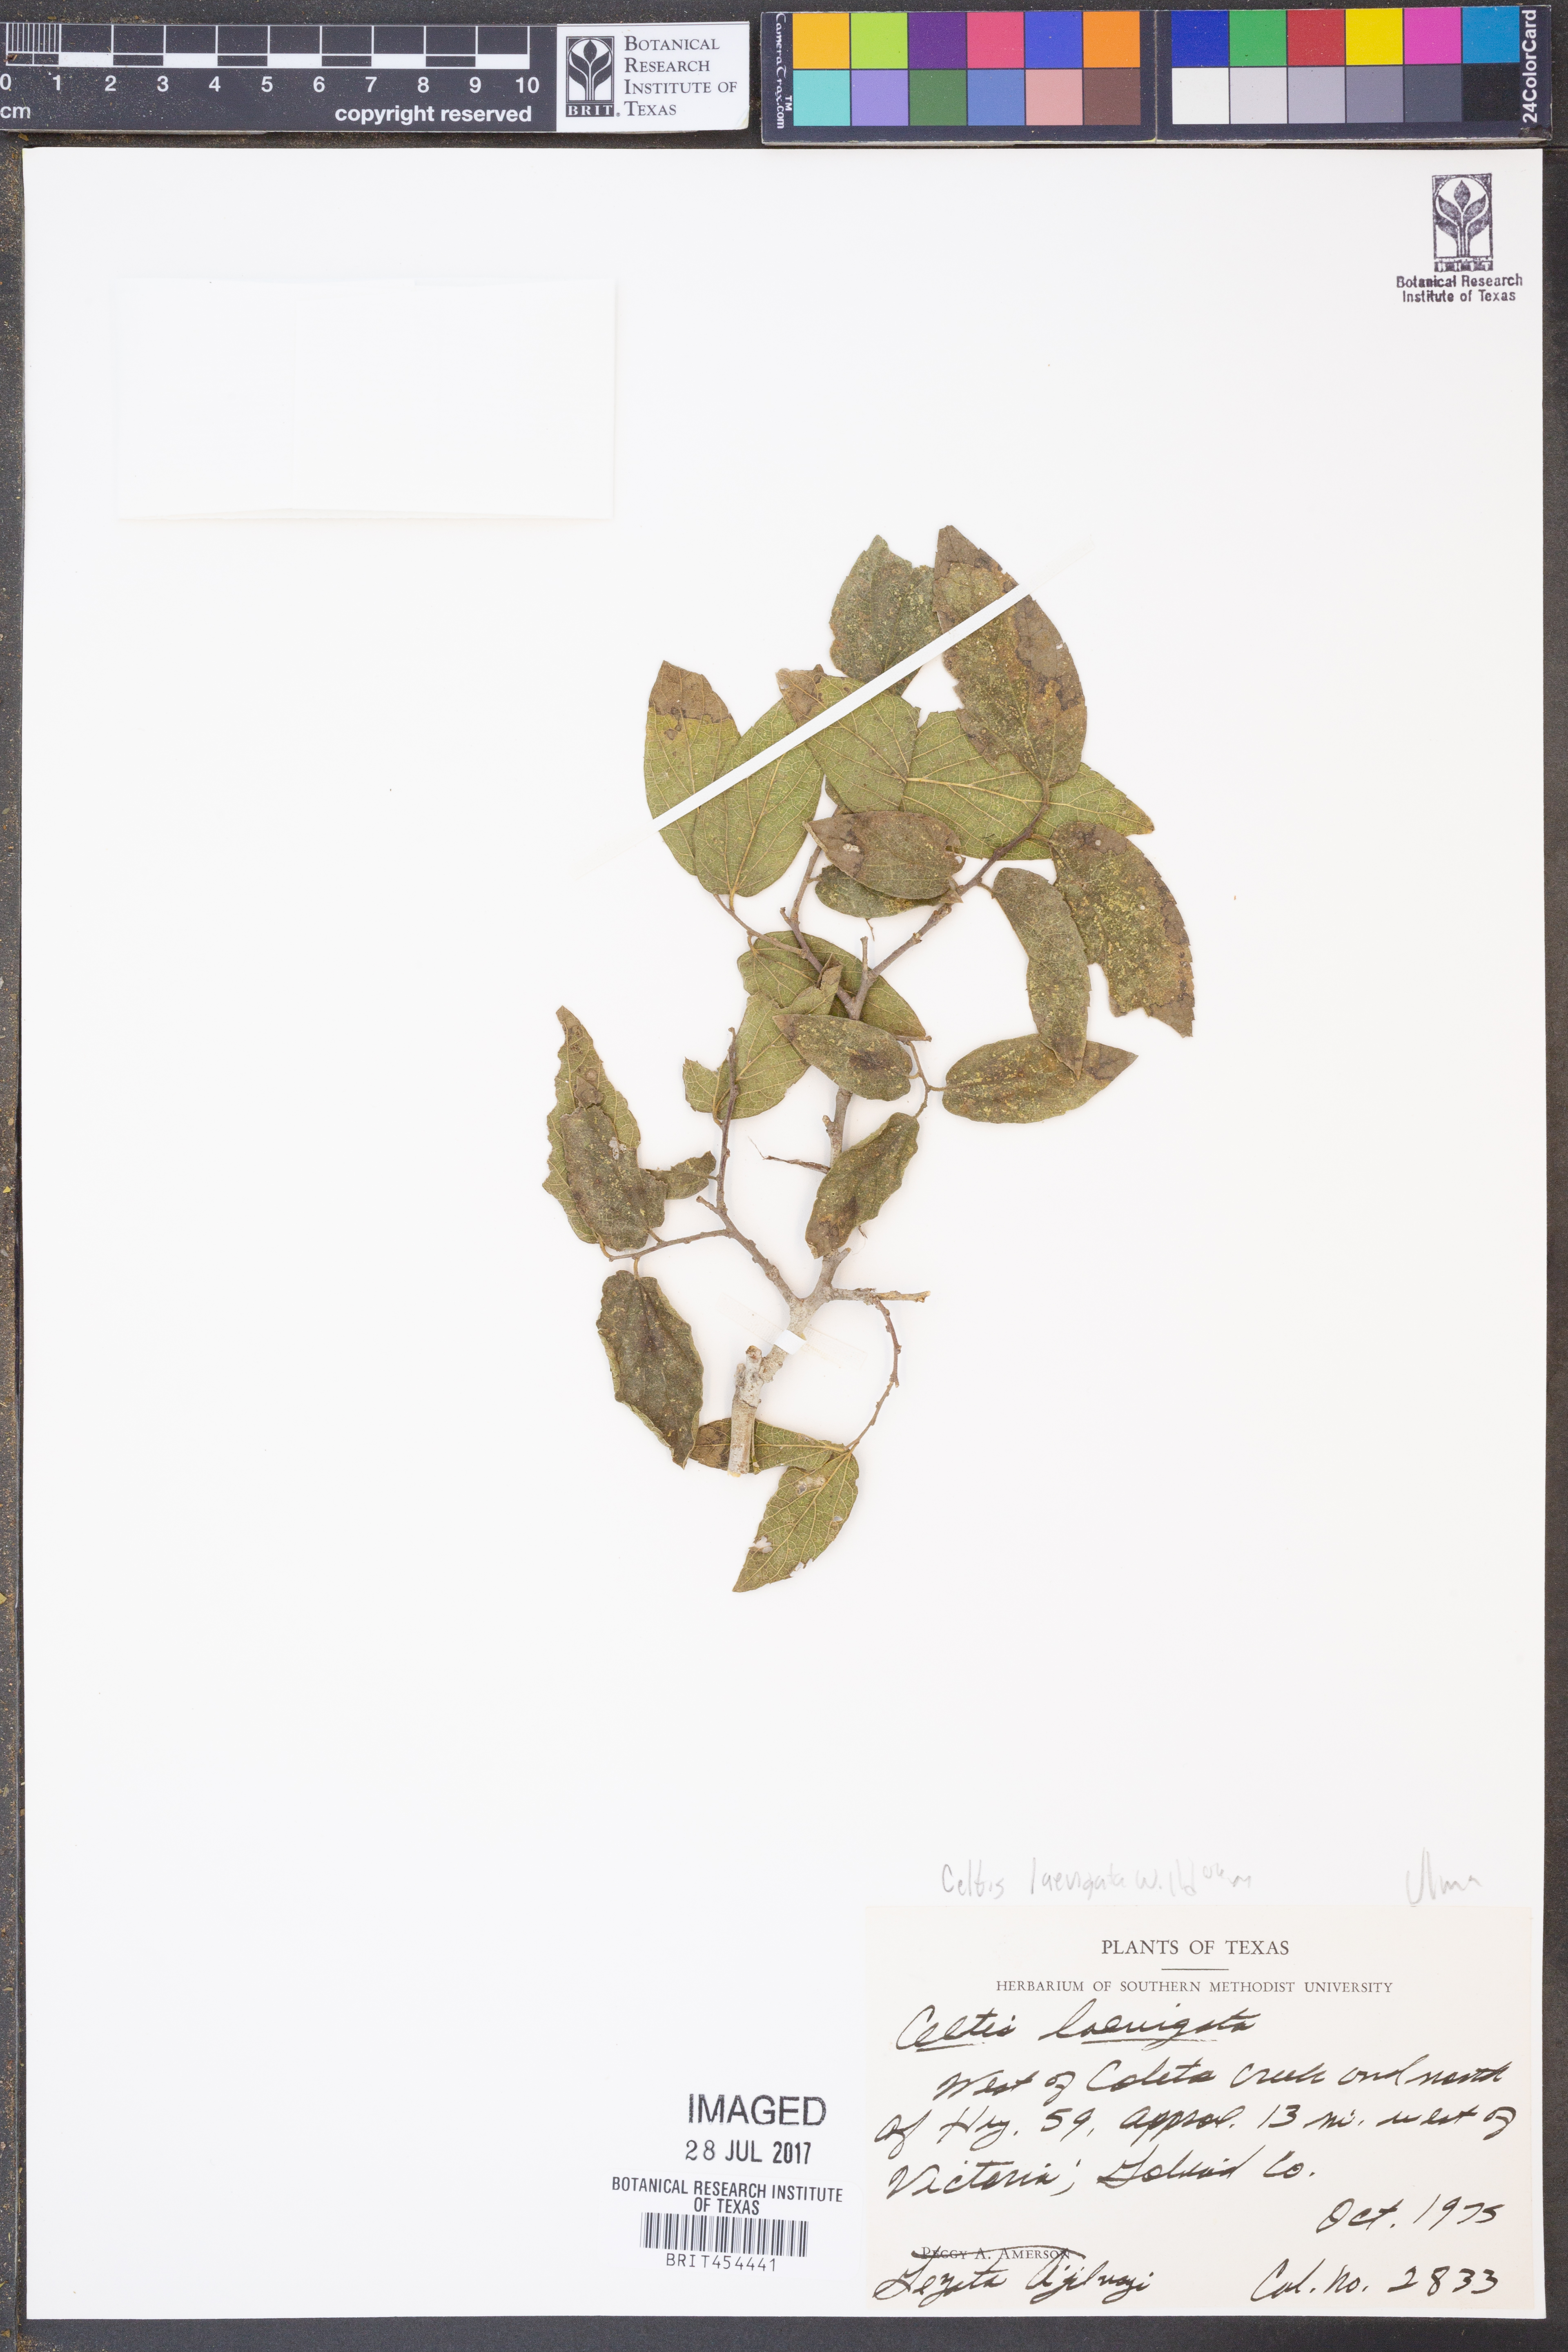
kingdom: Plantae
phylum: Tracheophyta
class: Magnoliopsida
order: Rosales
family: Cannabaceae
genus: Celtis
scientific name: Celtis laevigata
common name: Sugarberry
